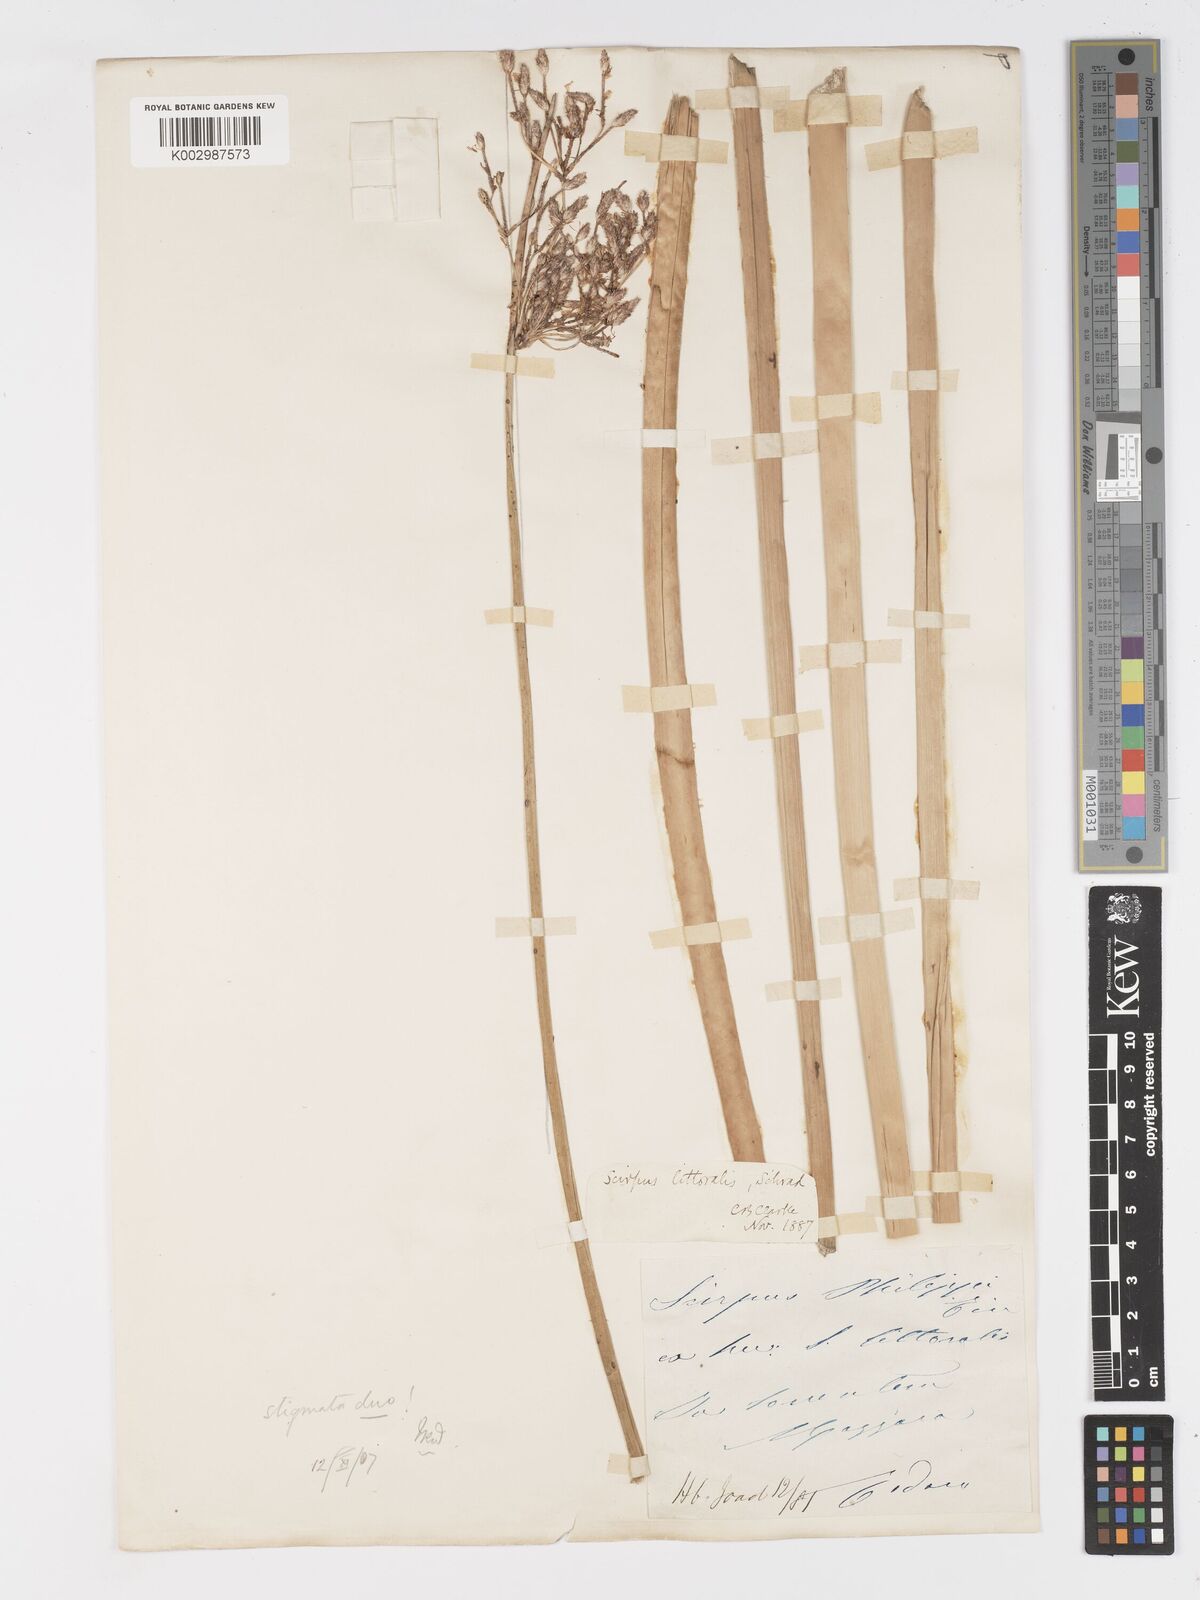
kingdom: Plantae
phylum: Tracheophyta
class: Liliopsida
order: Poales
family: Cyperaceae
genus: Schoenoplectus
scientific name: Schoenoplectus litoralis
